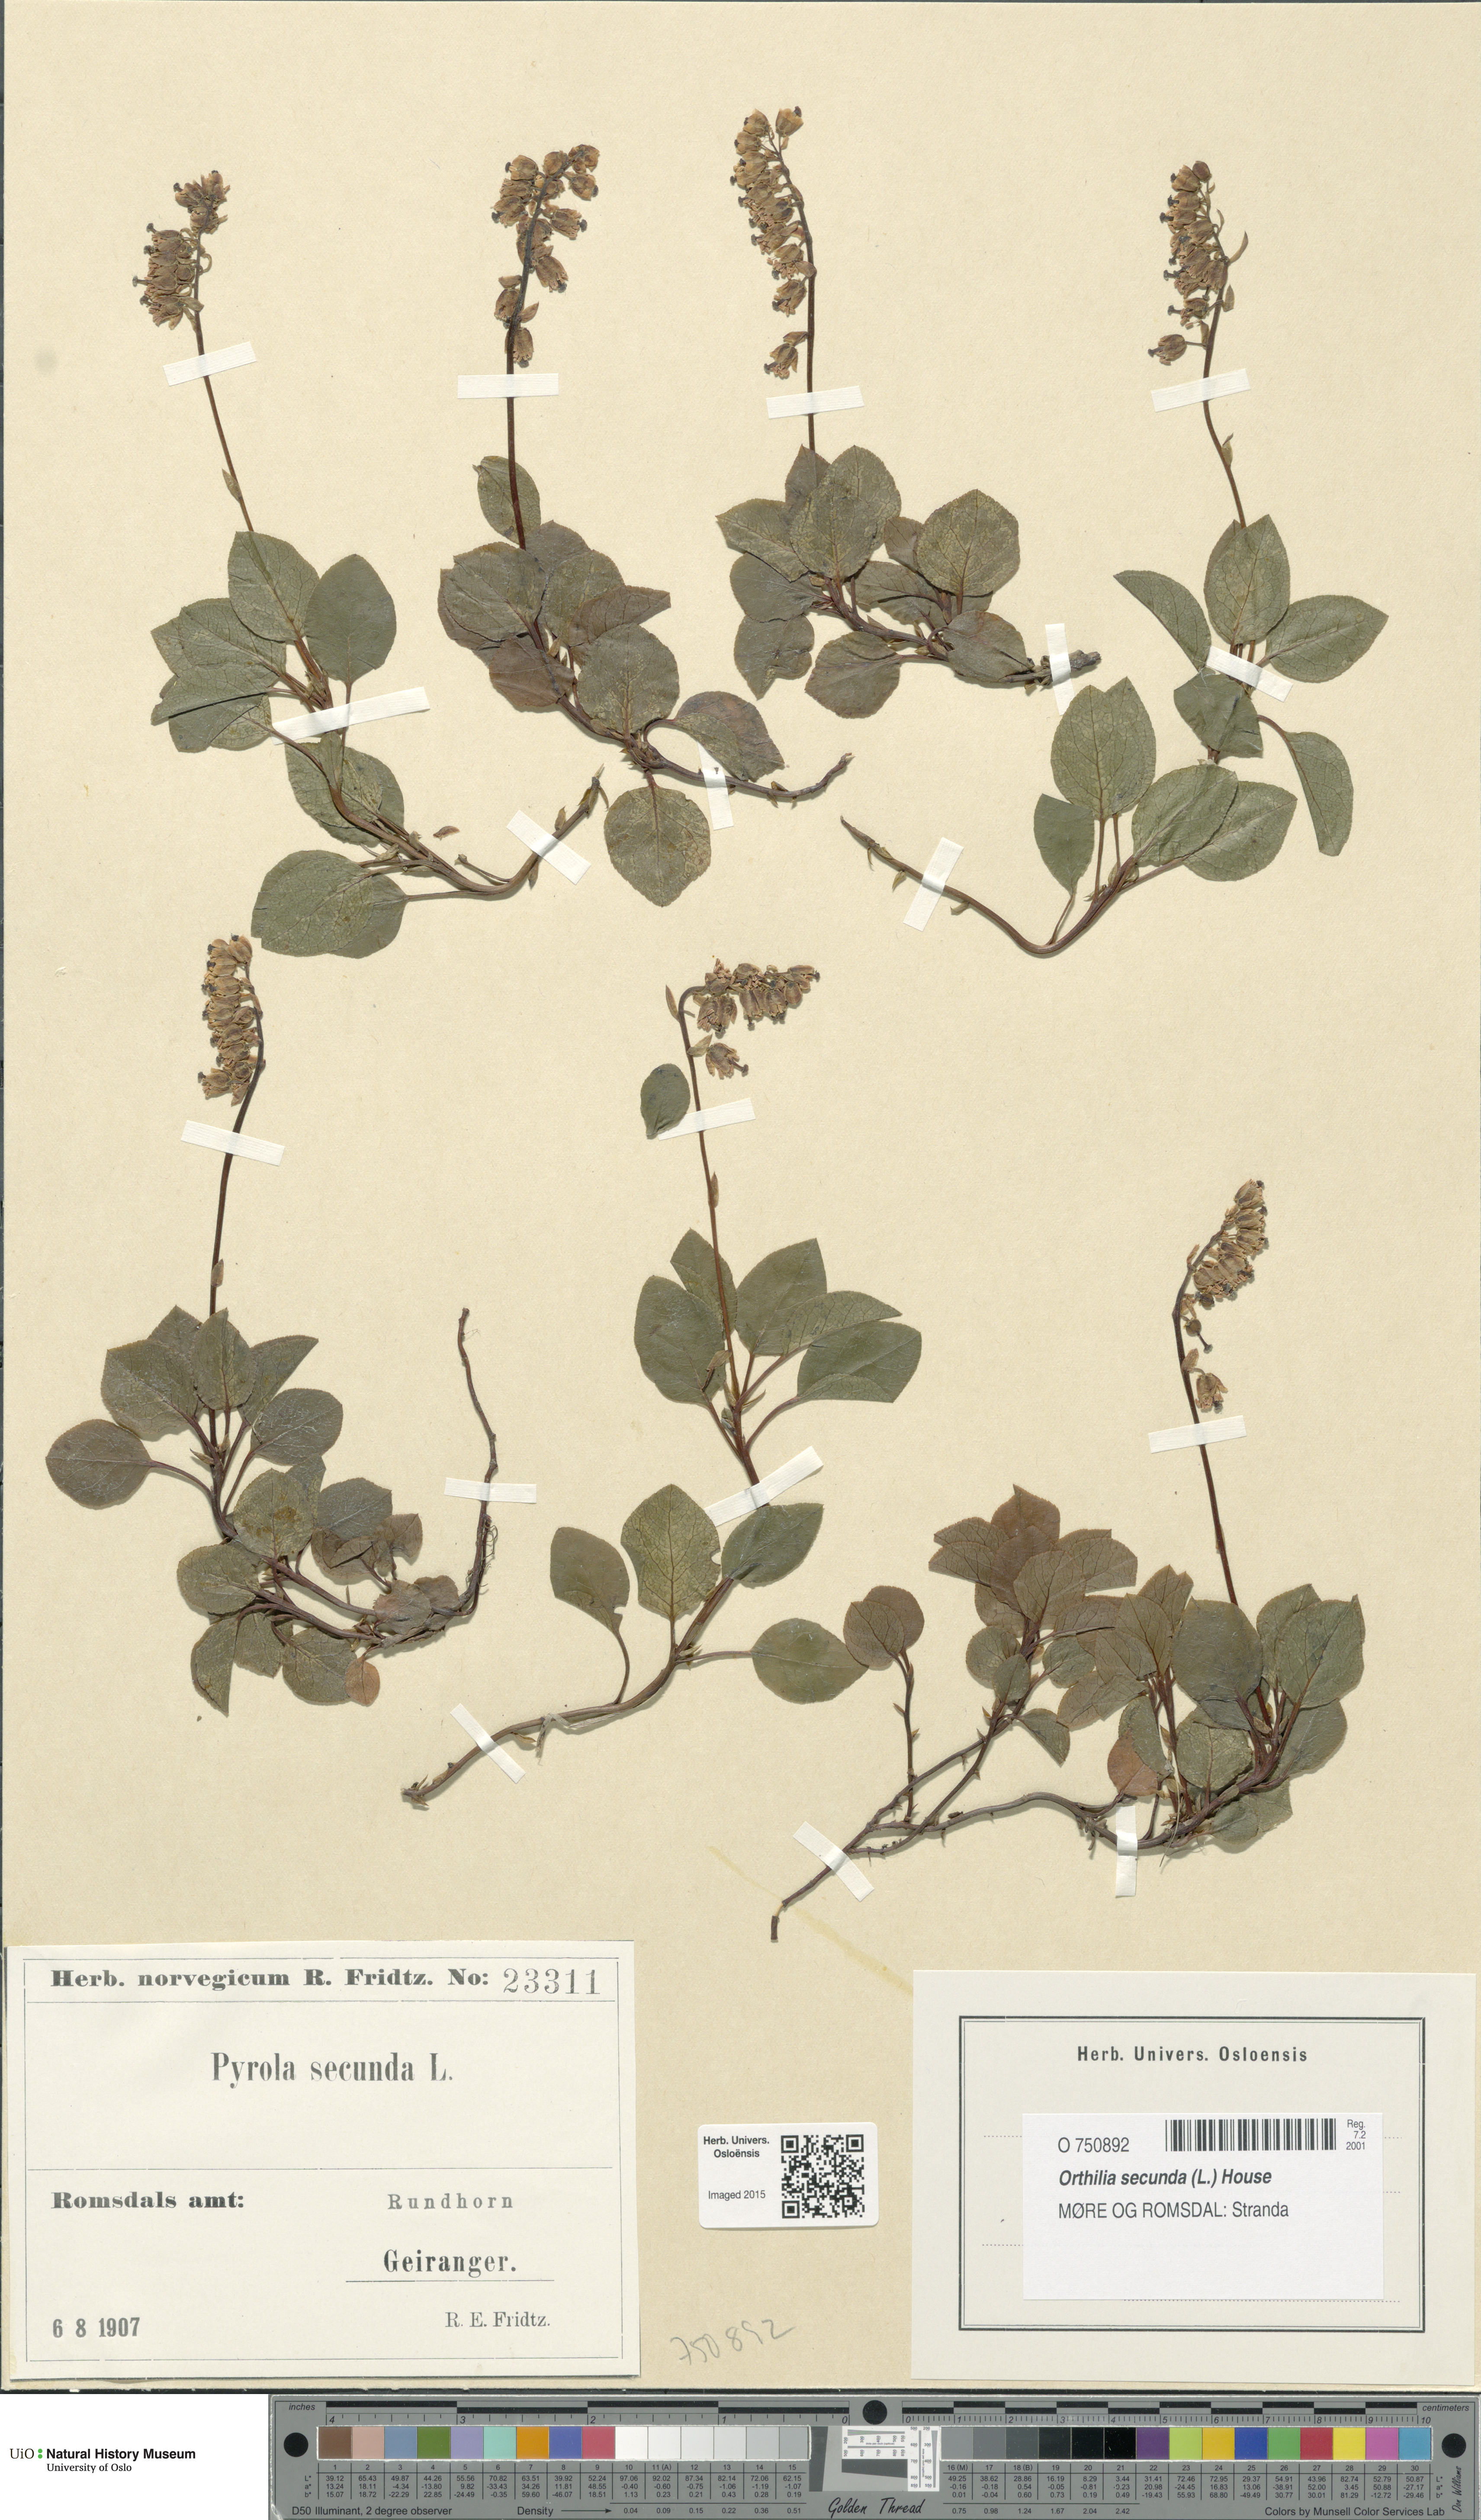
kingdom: Plantae
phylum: Tracheophyta
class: Magnoliopsida
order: Ericales
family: Ericaceae
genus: Orthilia
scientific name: Orthilia secunda
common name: One-sided orthilia
